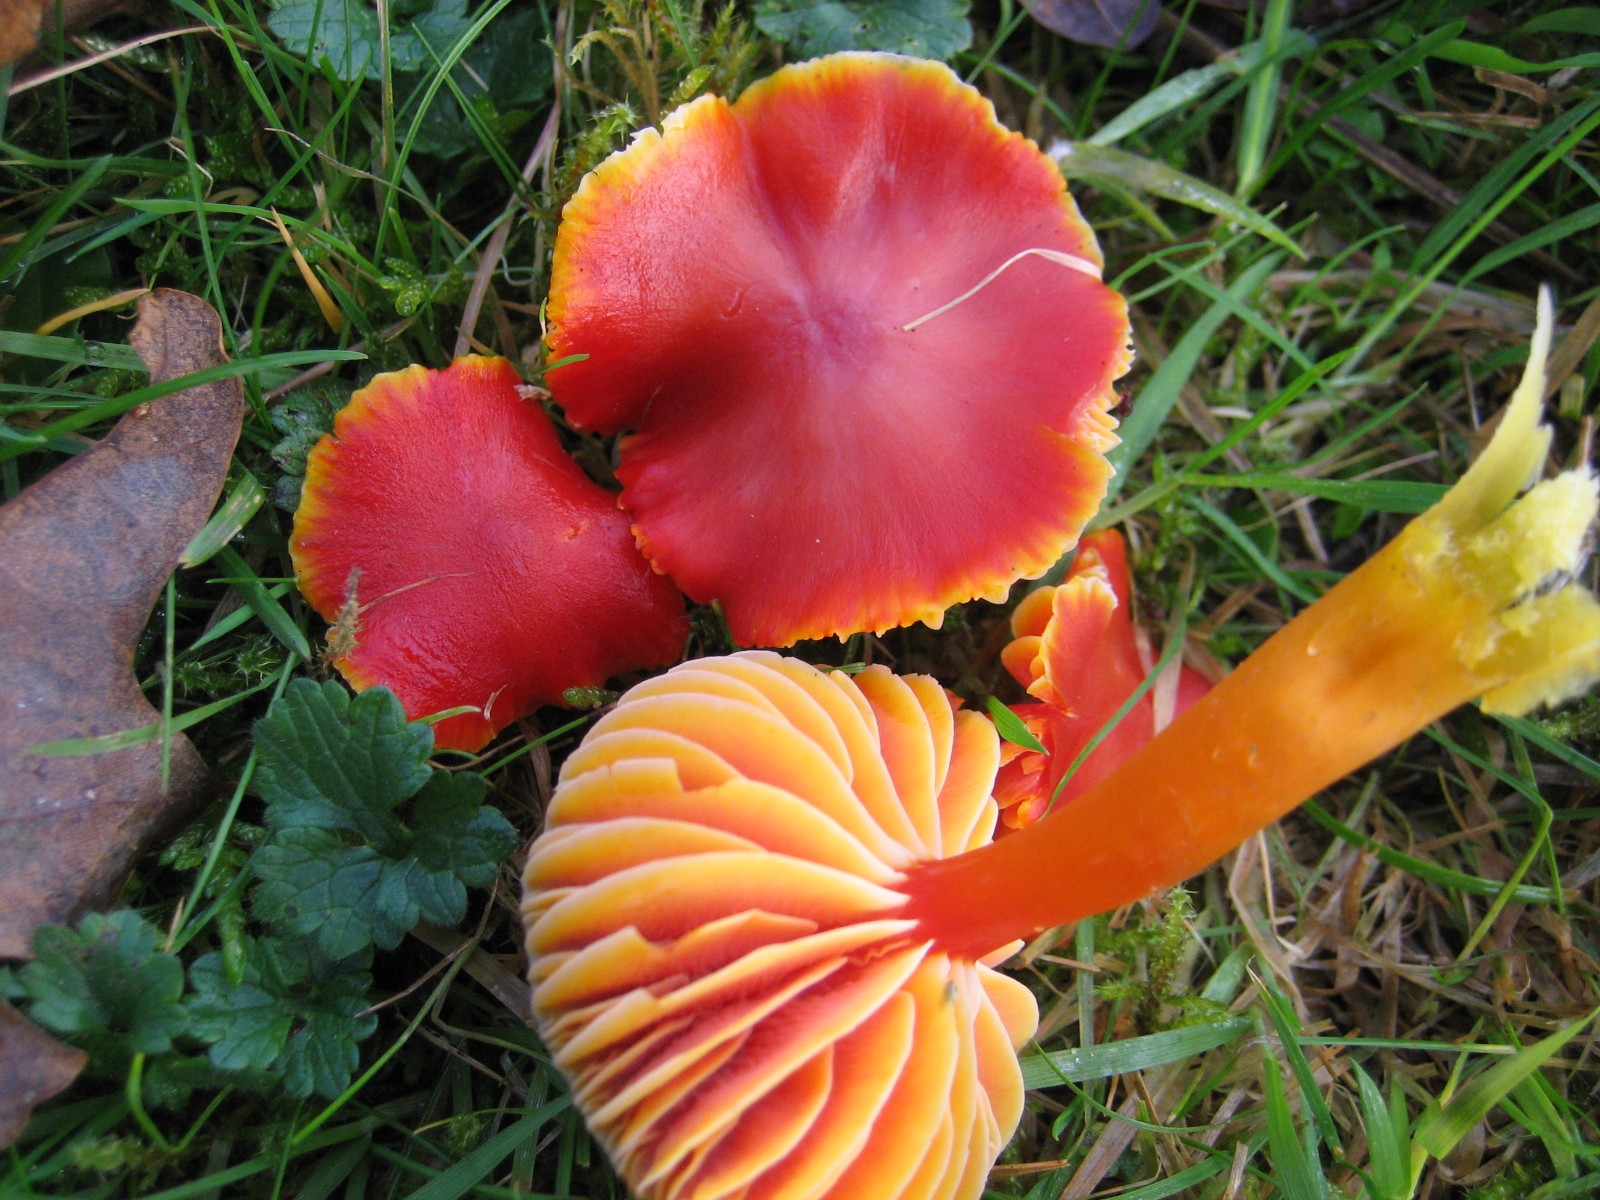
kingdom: Fungi
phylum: Basidiomycota
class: Agaricomycetes
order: Agaricales
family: Hygrophoraceae
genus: Hygrocybe
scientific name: Hygrocybe coccinea
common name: cinnober-vokshat
